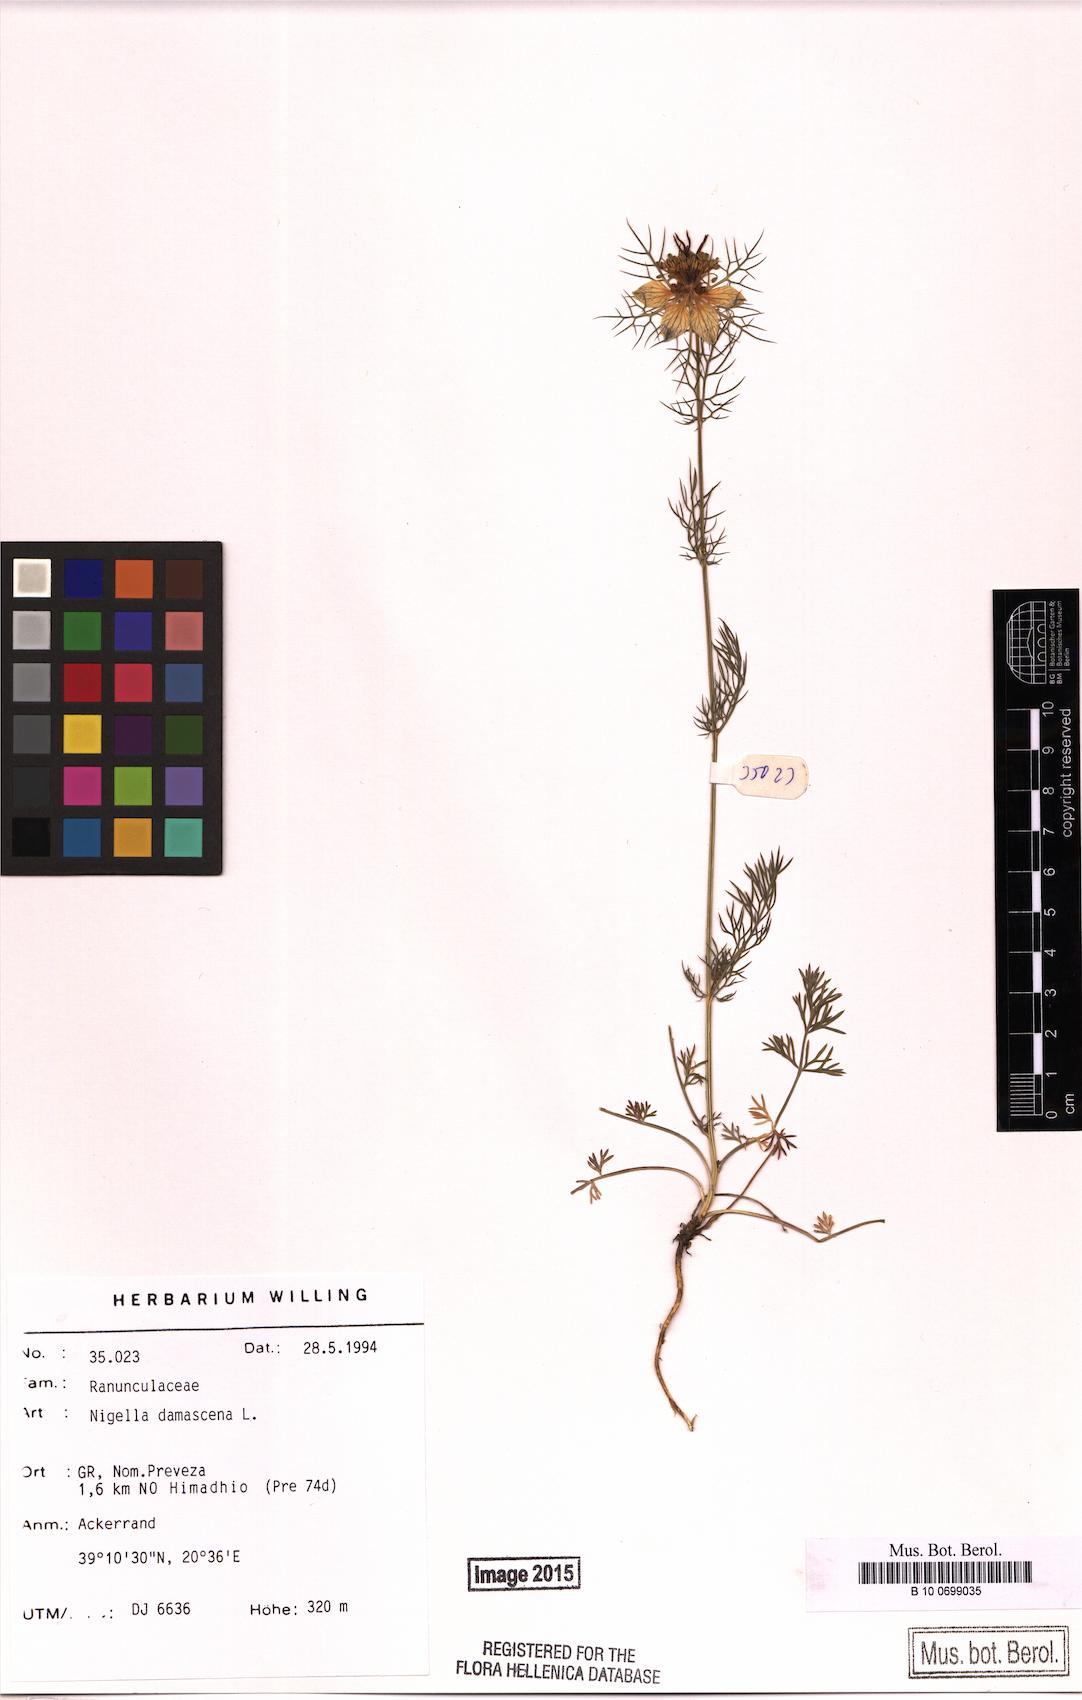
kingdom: Plantae
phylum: Tracheophyta
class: Magnoliopsida
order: Ranunculales
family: Ranunculaceae
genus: Nigella
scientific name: Nigella damascena
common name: Love-in-a-mist
